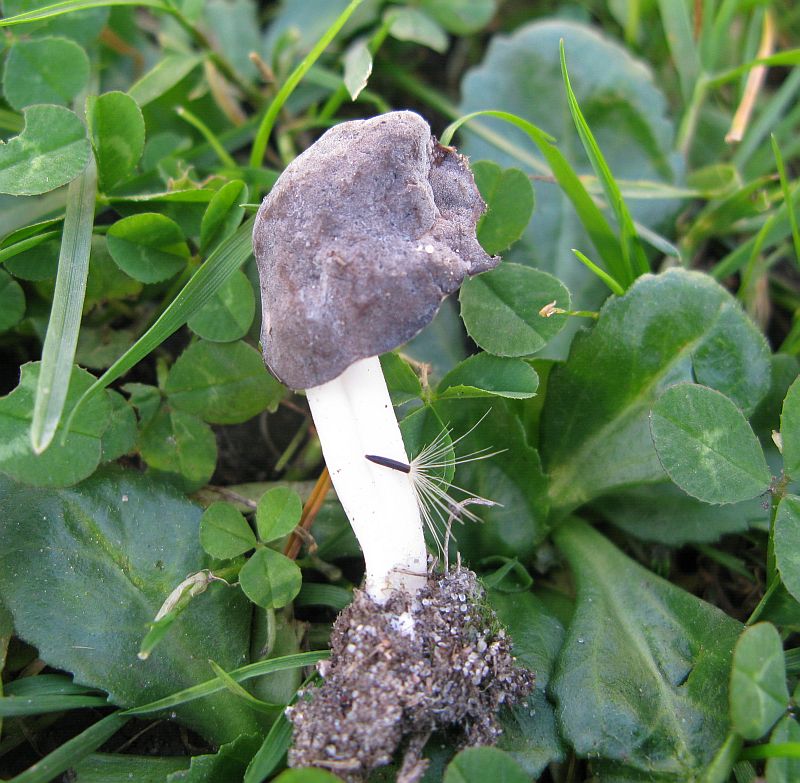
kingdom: Fungi
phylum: Ascomycota
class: Pezizomycetes
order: Pezizales
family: Helvellaceae
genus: Helvella
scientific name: Helvella
